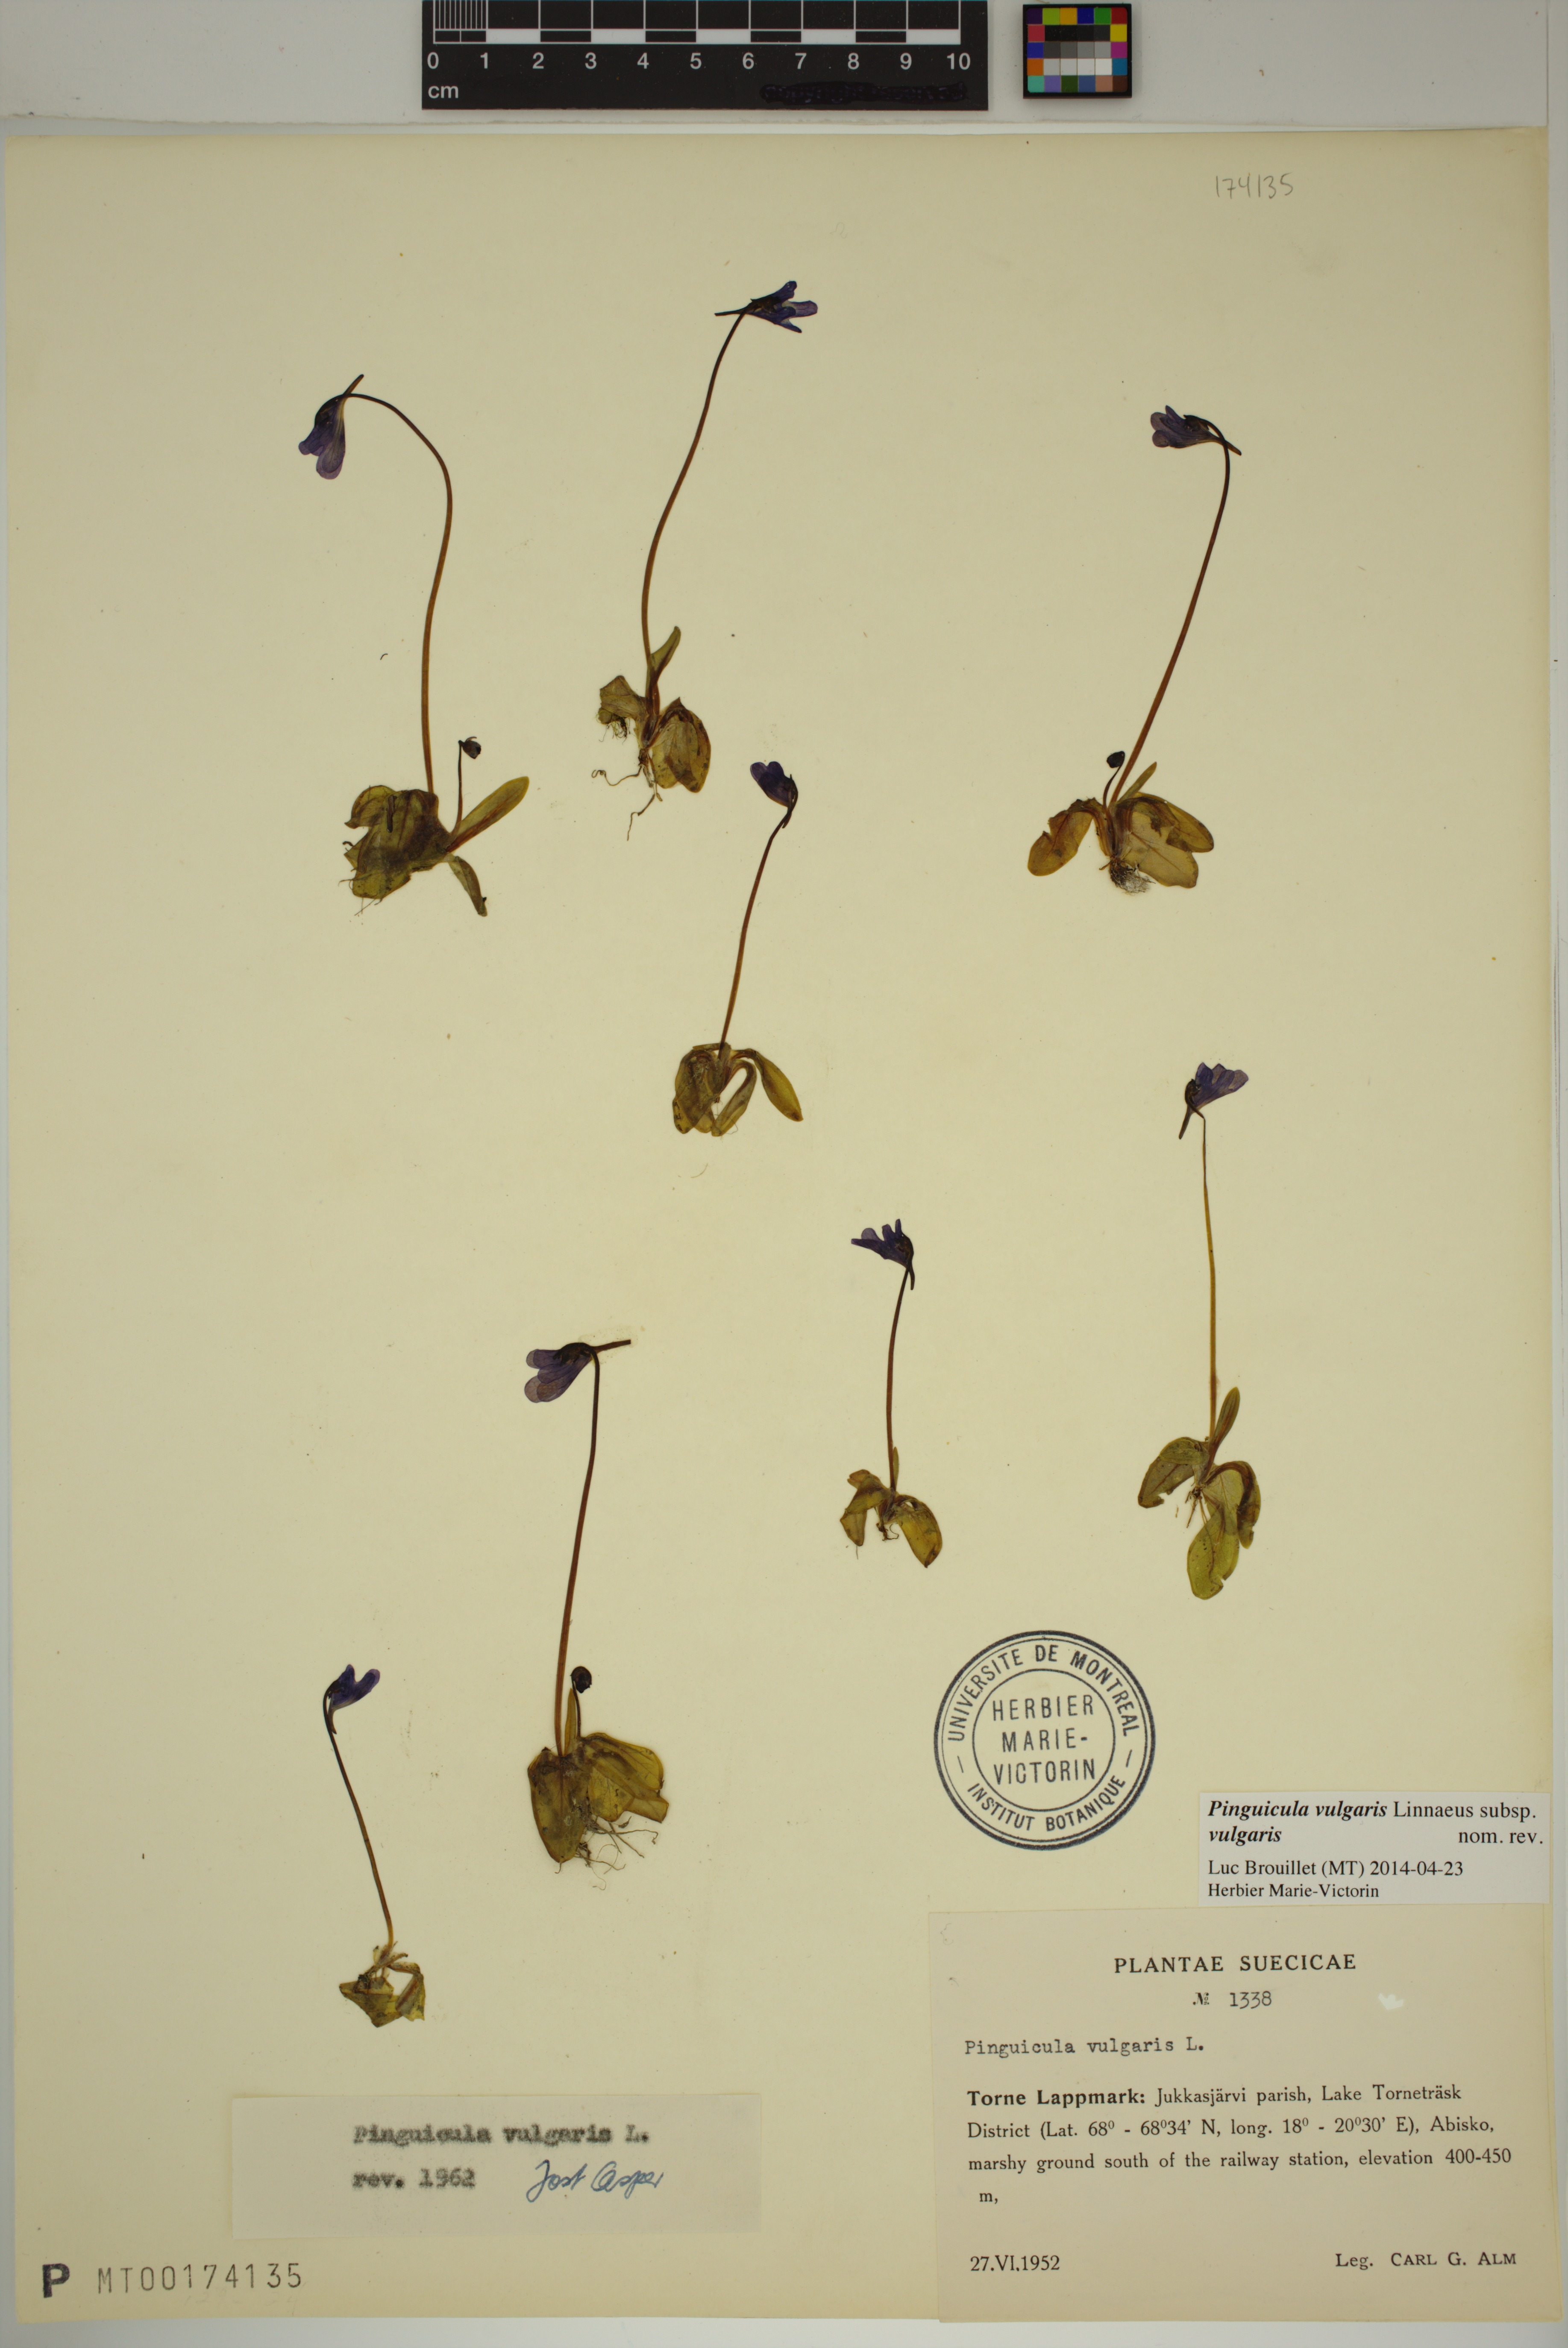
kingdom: Plantae
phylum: Tracheophyta
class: Magnoliopsida
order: Lamiales
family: Lentibulariaceae
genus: Pinguicula
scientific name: Pinguicula vulgaris
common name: Common butterwort
